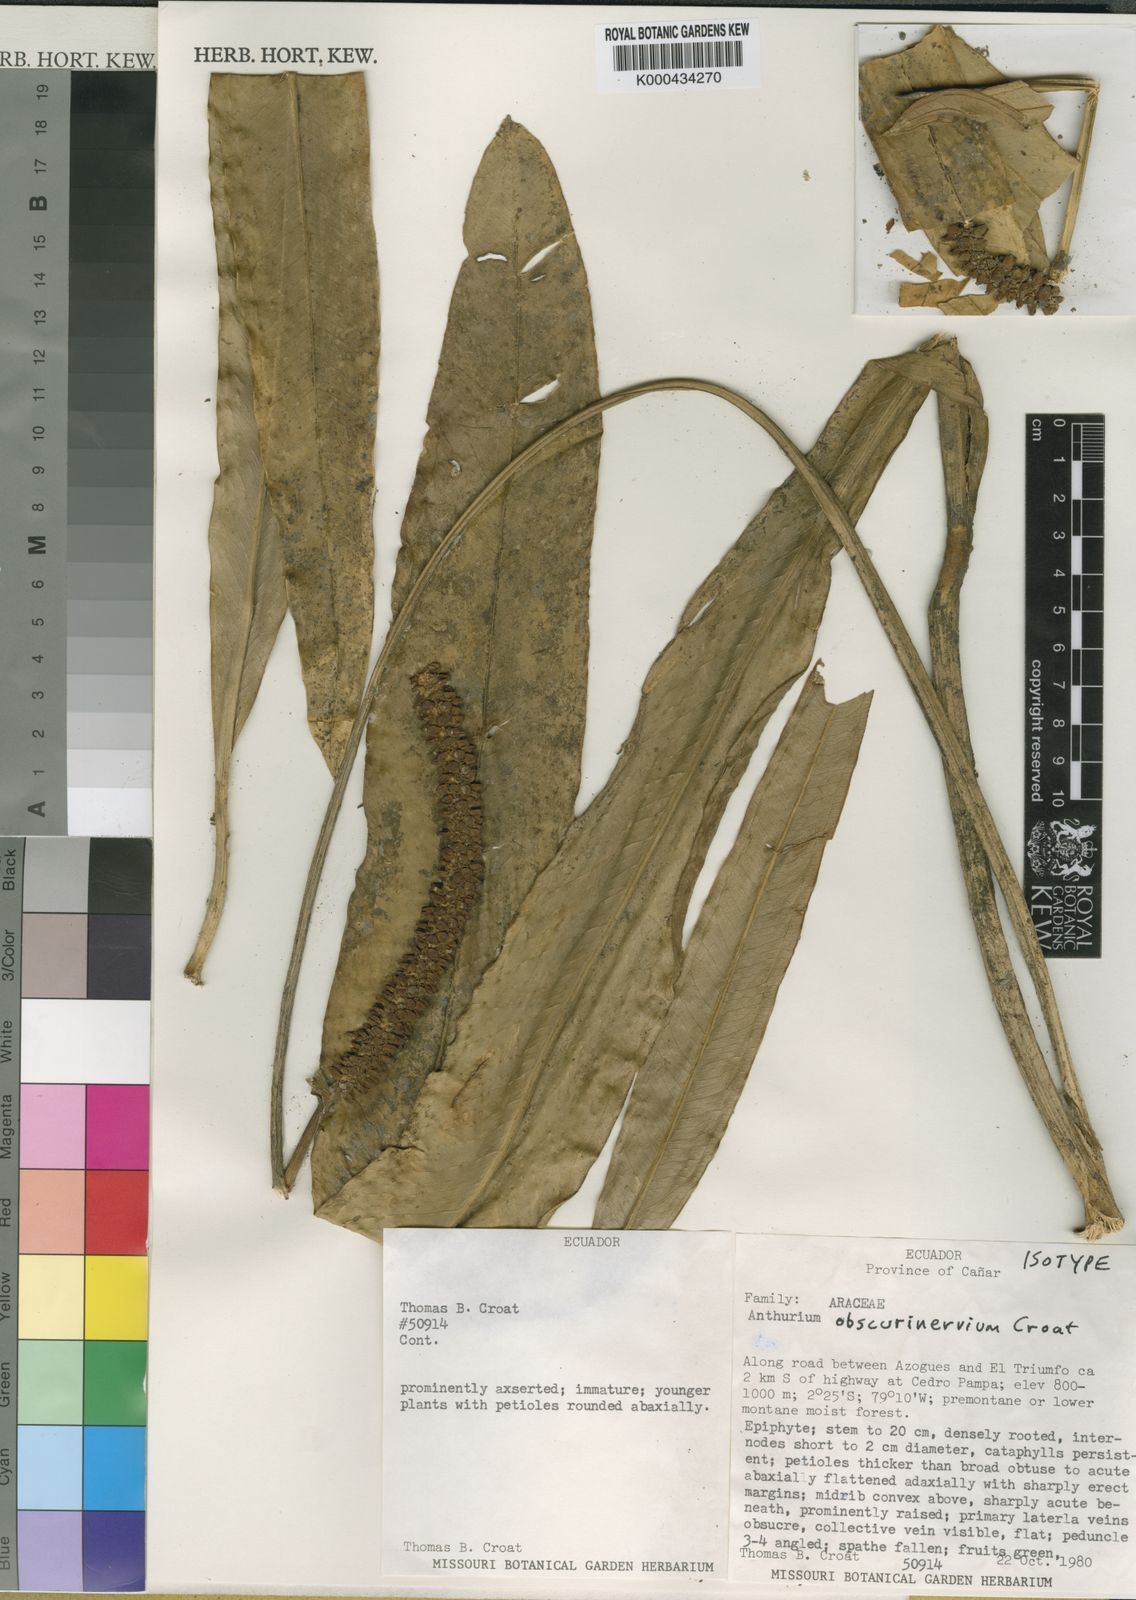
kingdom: Plantae
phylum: Tracheophyta
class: Liliopsida
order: Alismatales
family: Araceae
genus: Anthurium
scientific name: Anthurium obscurinervium
